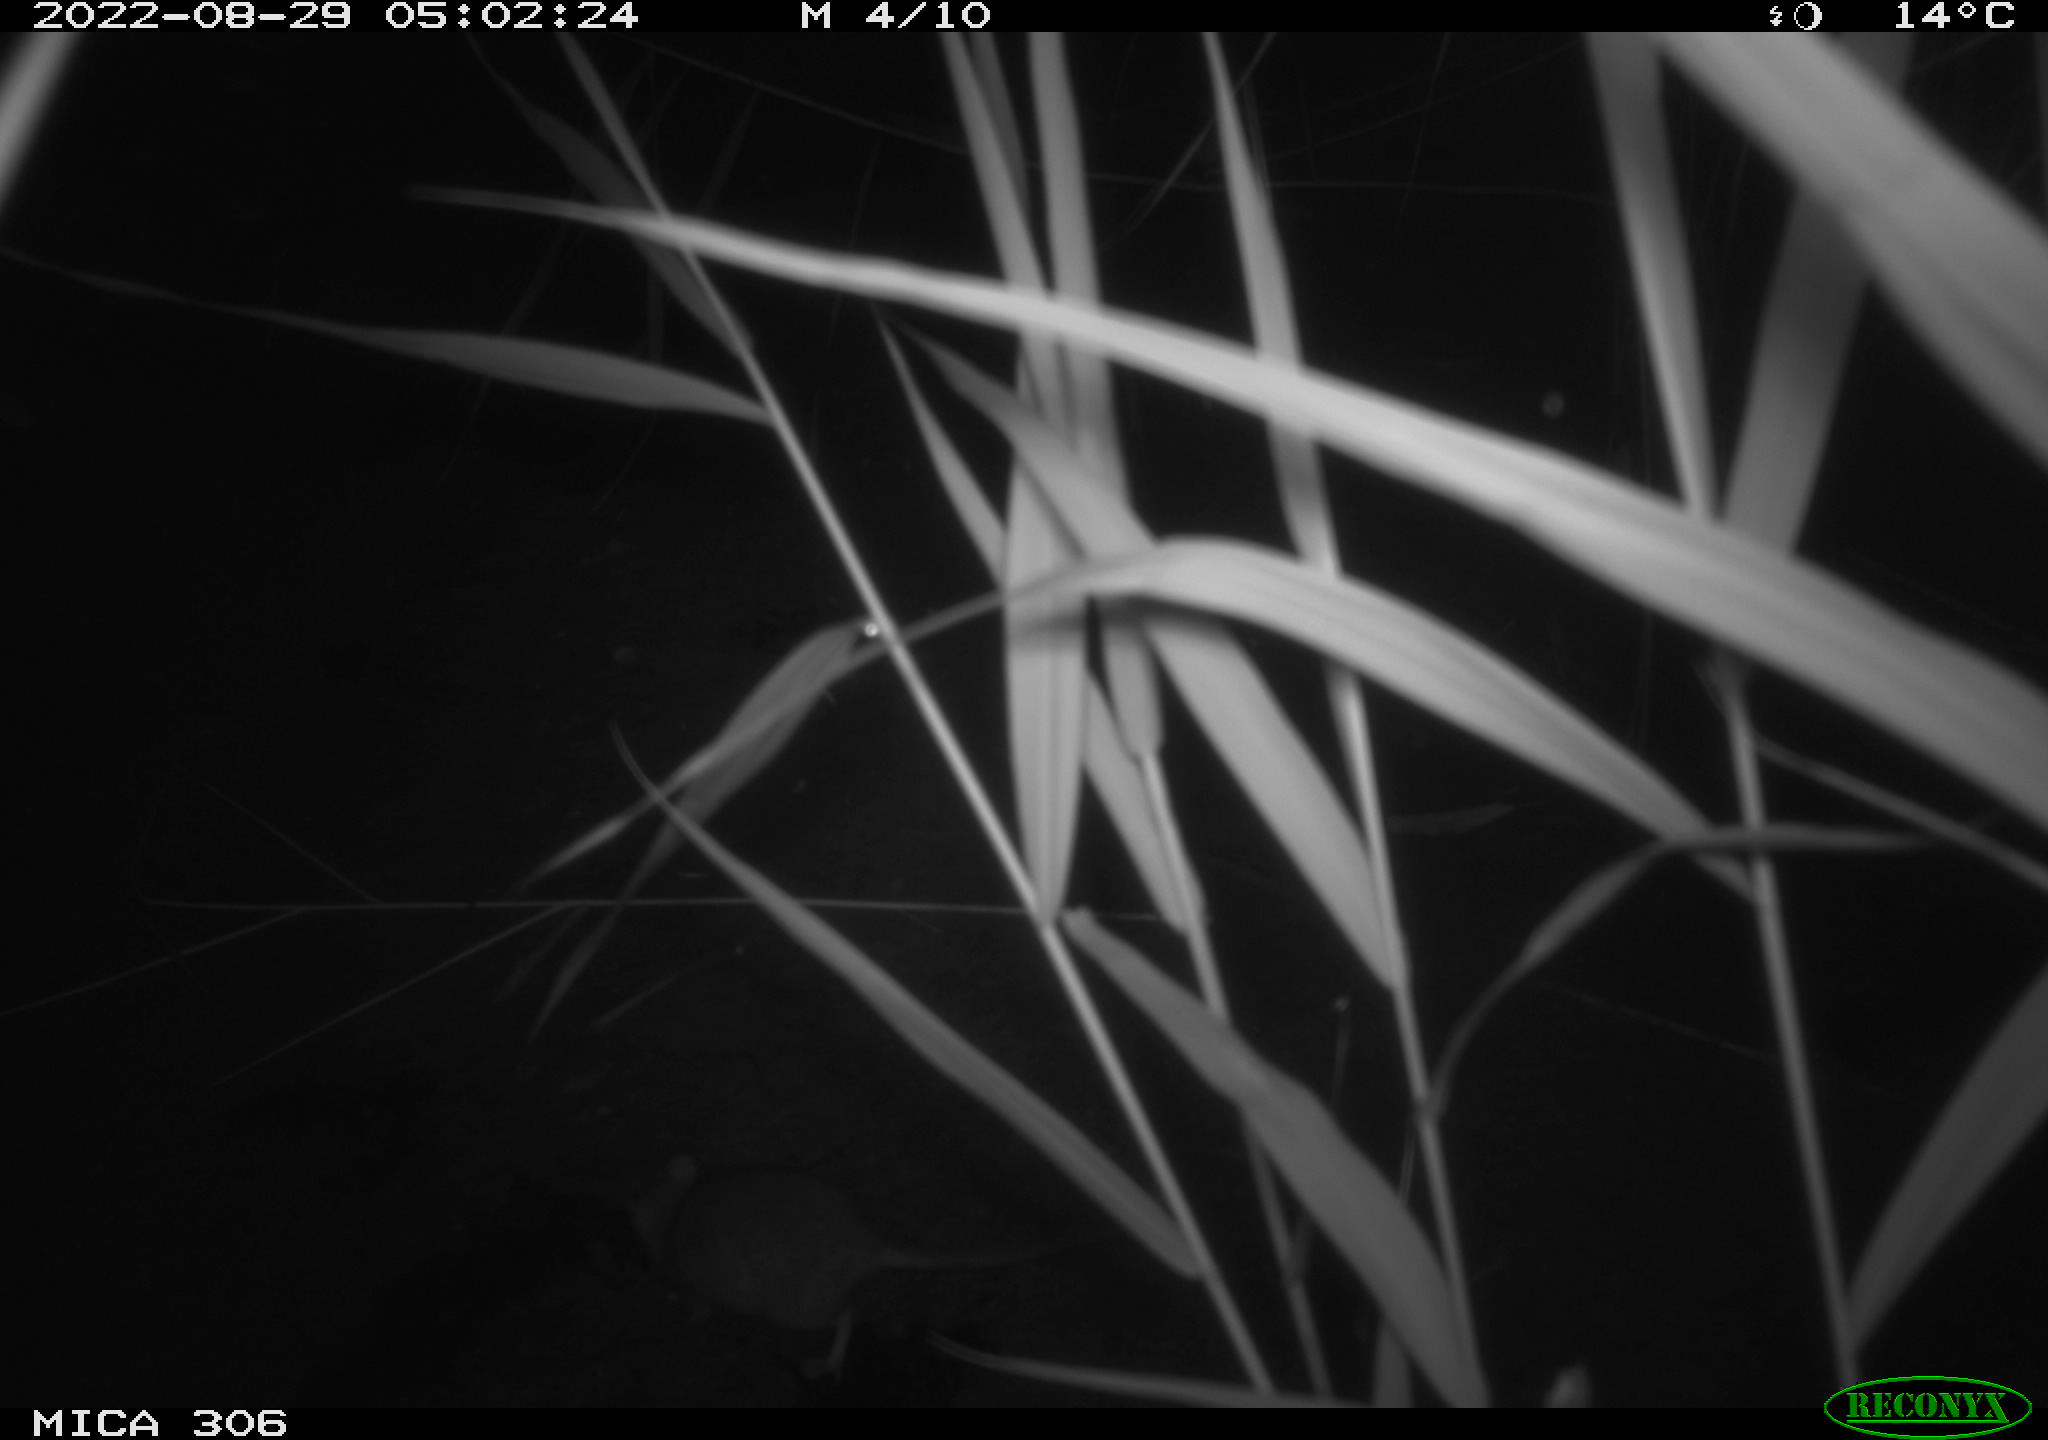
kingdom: Animalia
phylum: Chordata
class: Mammalia
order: Rodentia
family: Muridae
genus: Rattus
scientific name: Rattus norvegicus
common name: Brown rat
